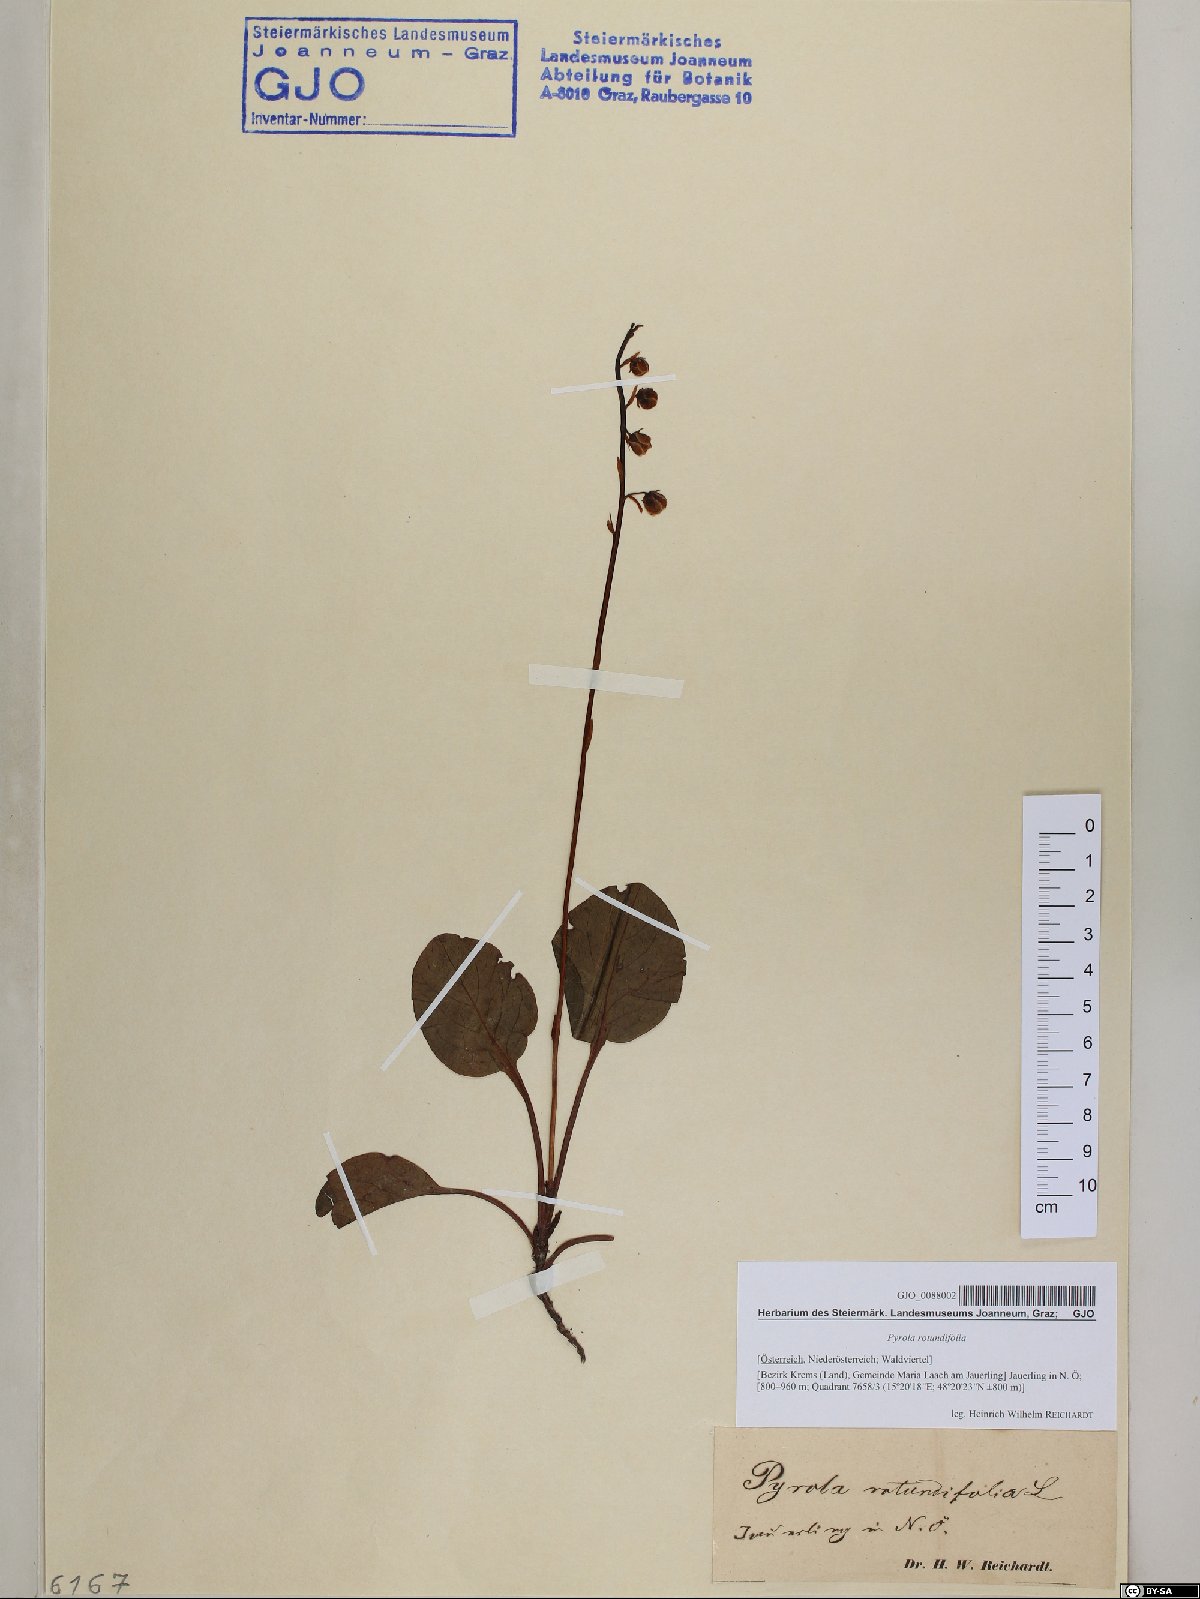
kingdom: Plantae
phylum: Tracheophyta
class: Magnoliopsida
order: Ericales
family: Ericaceae
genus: Pyrola
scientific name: Pyrola rotundifolia
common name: Round-leaved wintergreen
